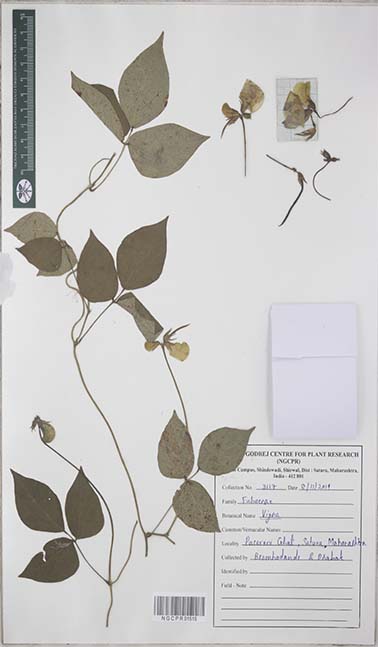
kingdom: Plantae
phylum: Tracheophyta
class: Magnoliopsida
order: Fabales
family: Fabaceae
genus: Vigna
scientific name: Vigna
